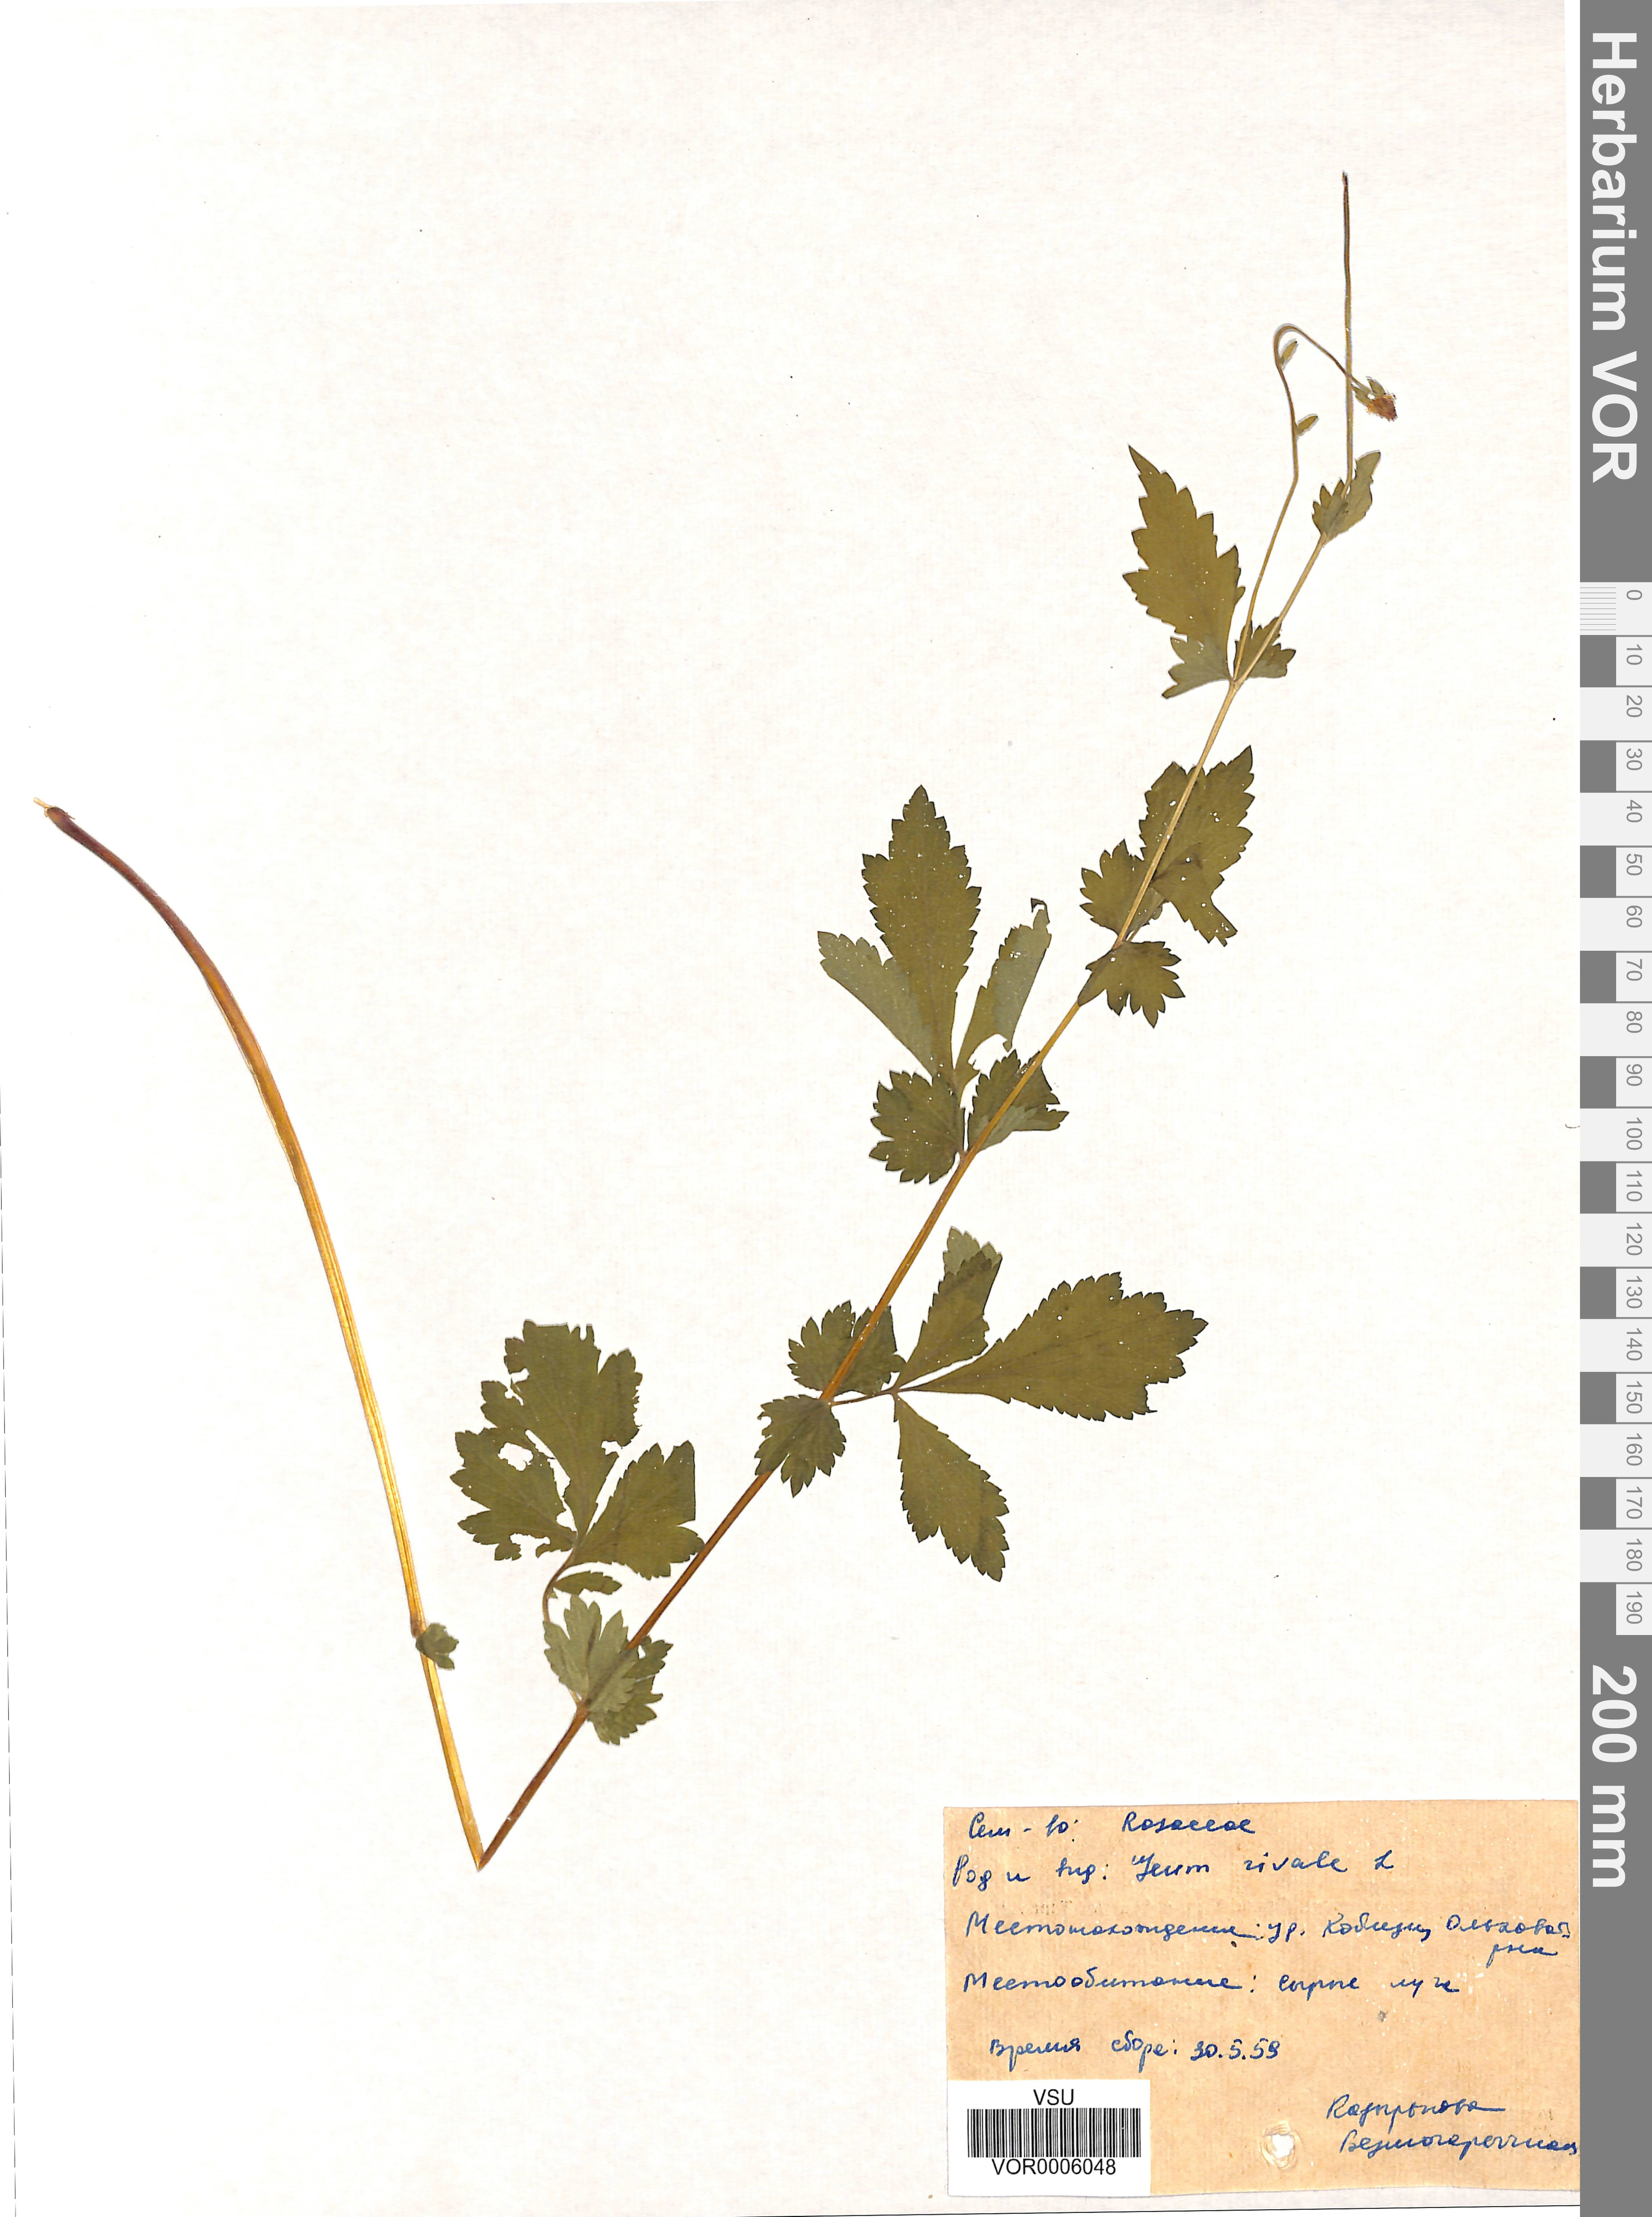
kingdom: Plantae
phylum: Tracheophyta
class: Magnoliopsida
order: Rosales
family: Rosaceae
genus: Geum
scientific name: Geum rivale
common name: Water avens
